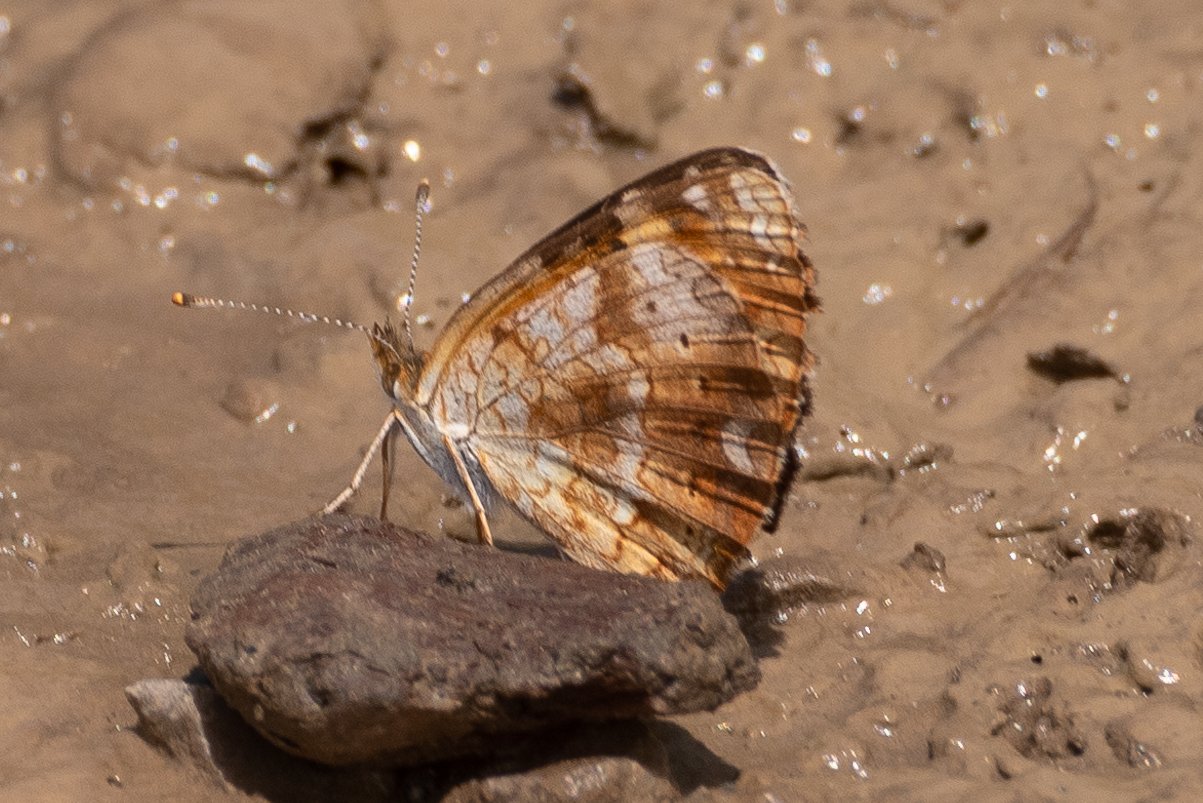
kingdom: Animalia
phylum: Arthropoda
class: Insecta
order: Lepidoptera
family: Nymphalidae
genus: Phyciodes
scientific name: Phyciodes
